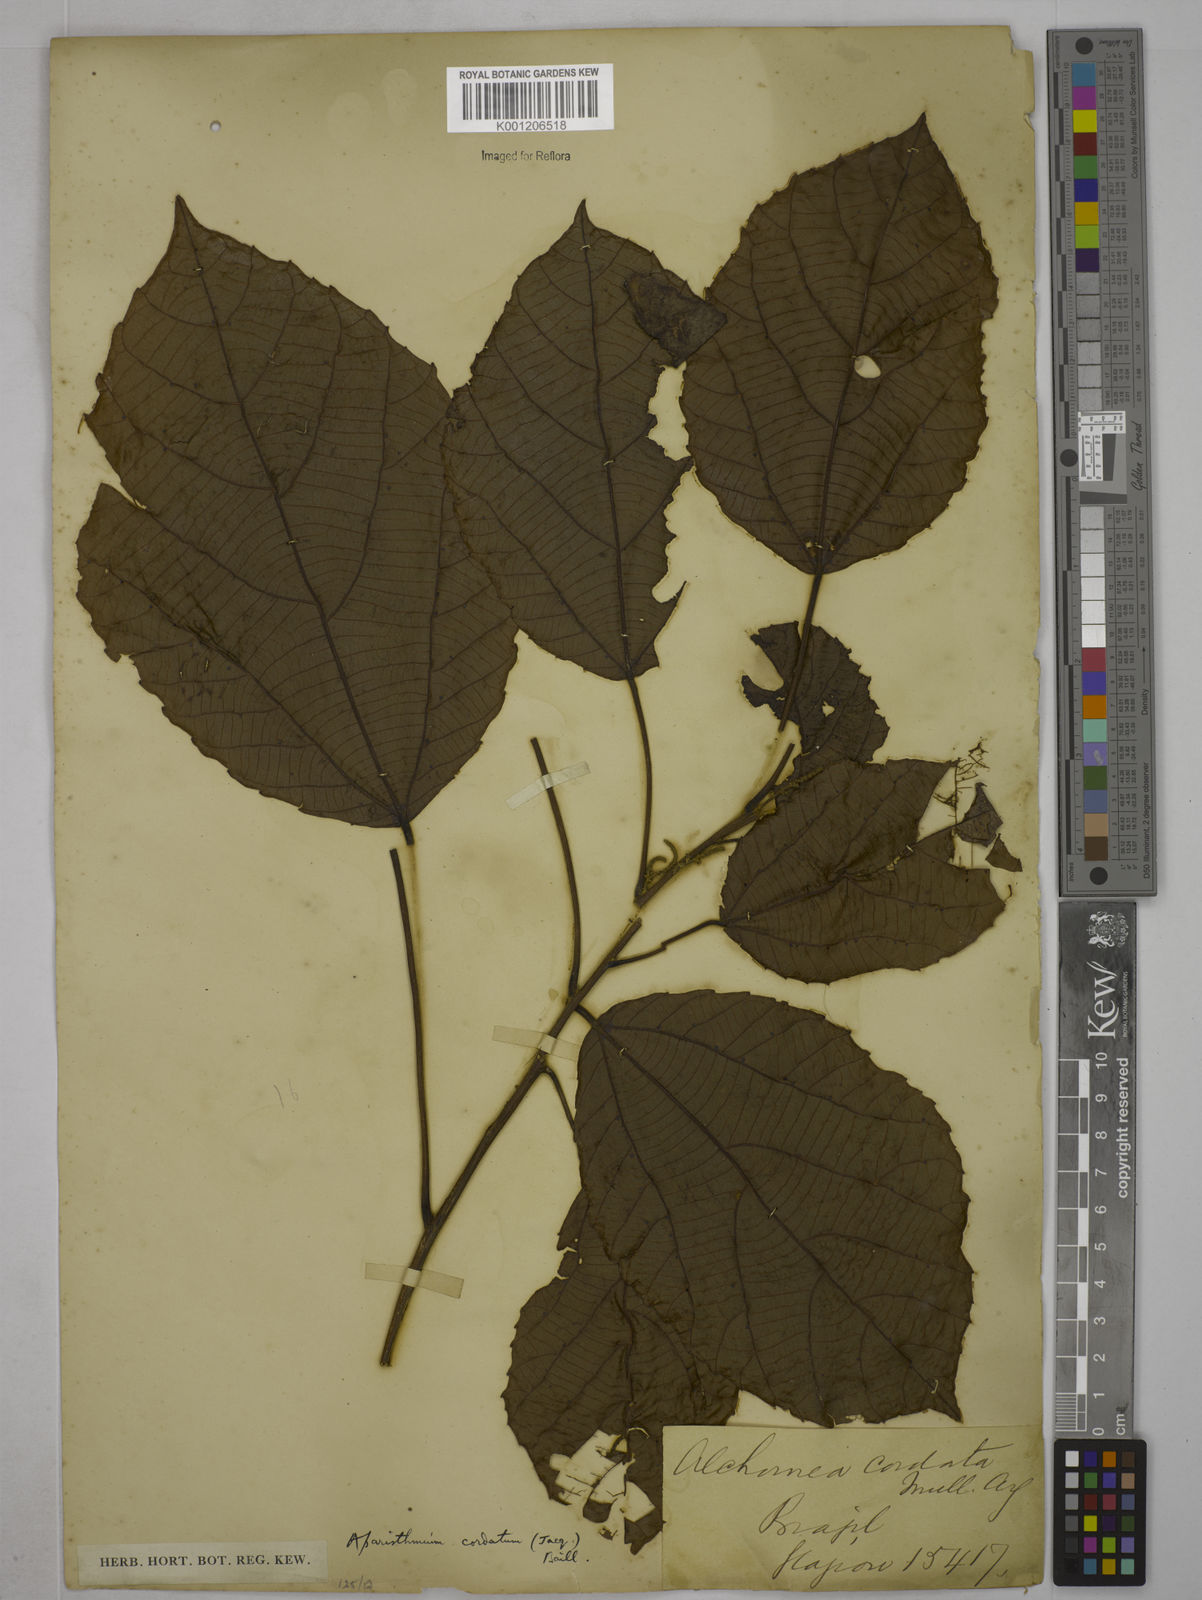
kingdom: Plantae
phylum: Tracheophyta
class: Magnoliopsida
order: Malpighiales
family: Euphorbiaceae
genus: Aparisthmium
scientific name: Aparisthmium cordatum
